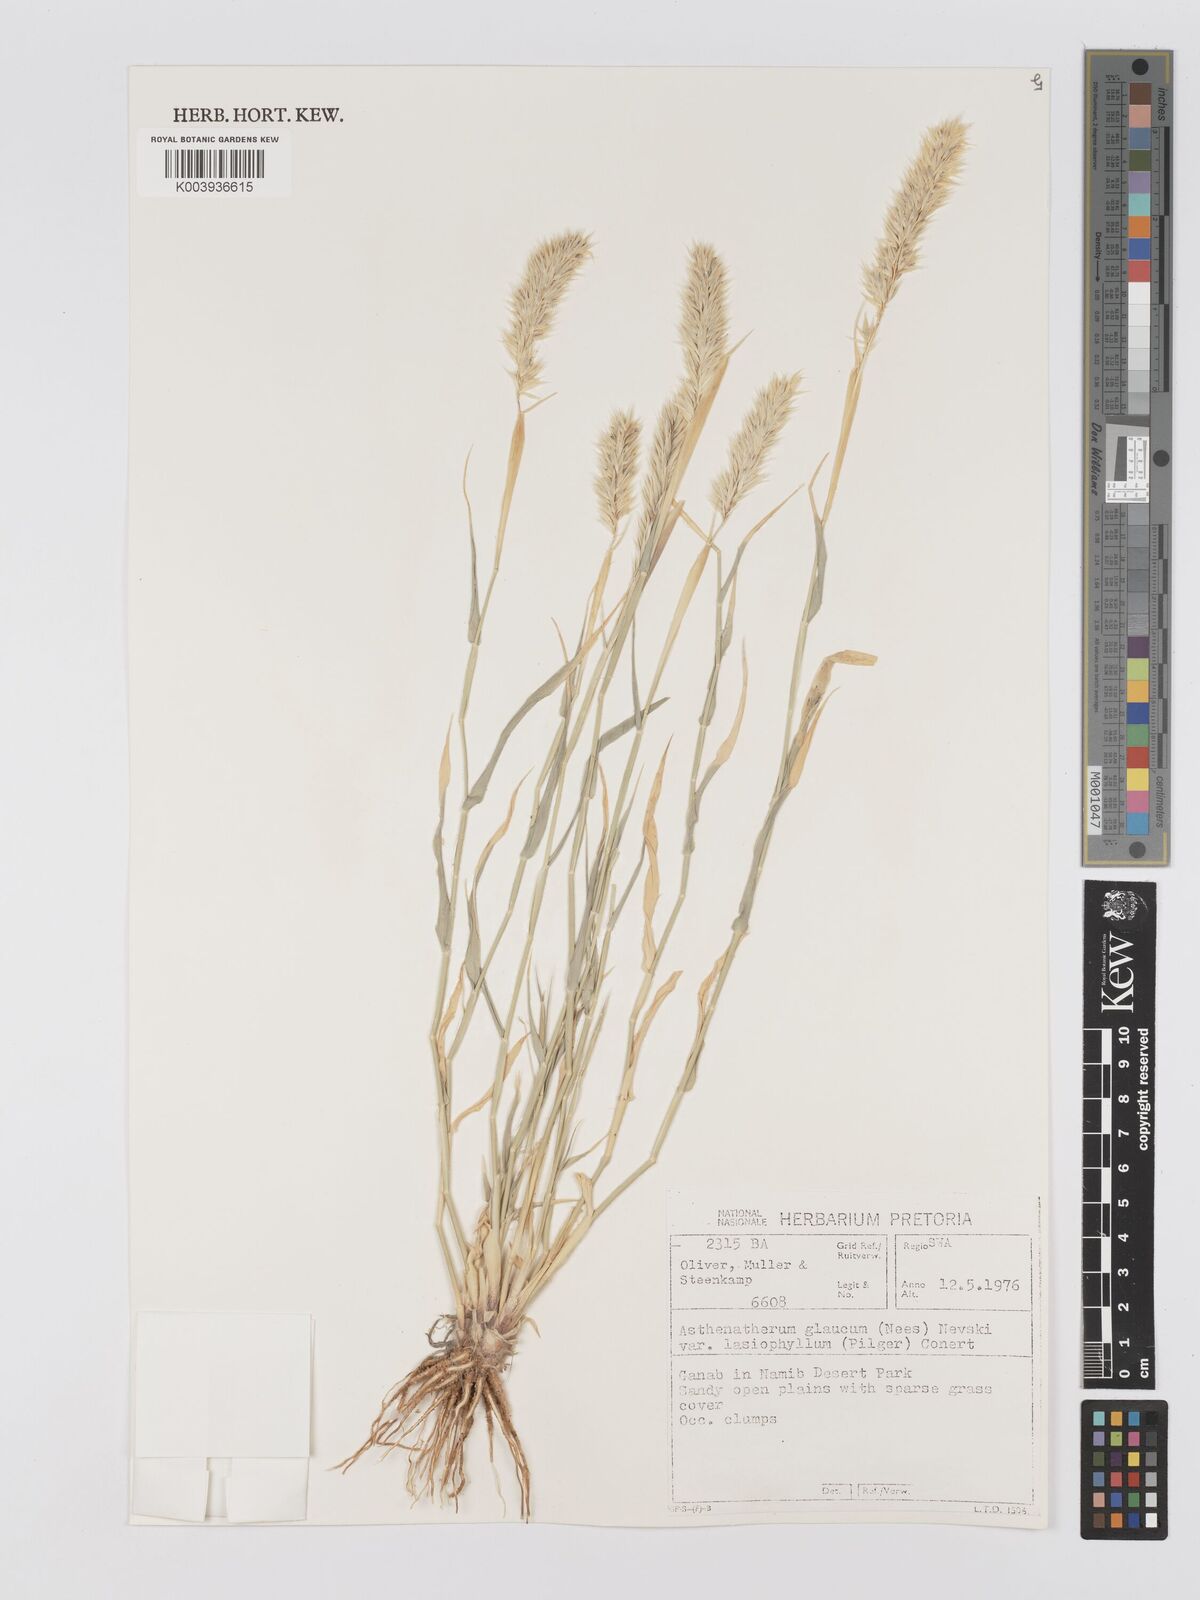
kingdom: Plantae
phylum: Tracheophyta
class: Liliopsida
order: Poales
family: Poaceae
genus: Centropodia
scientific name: Centropodia glauca
